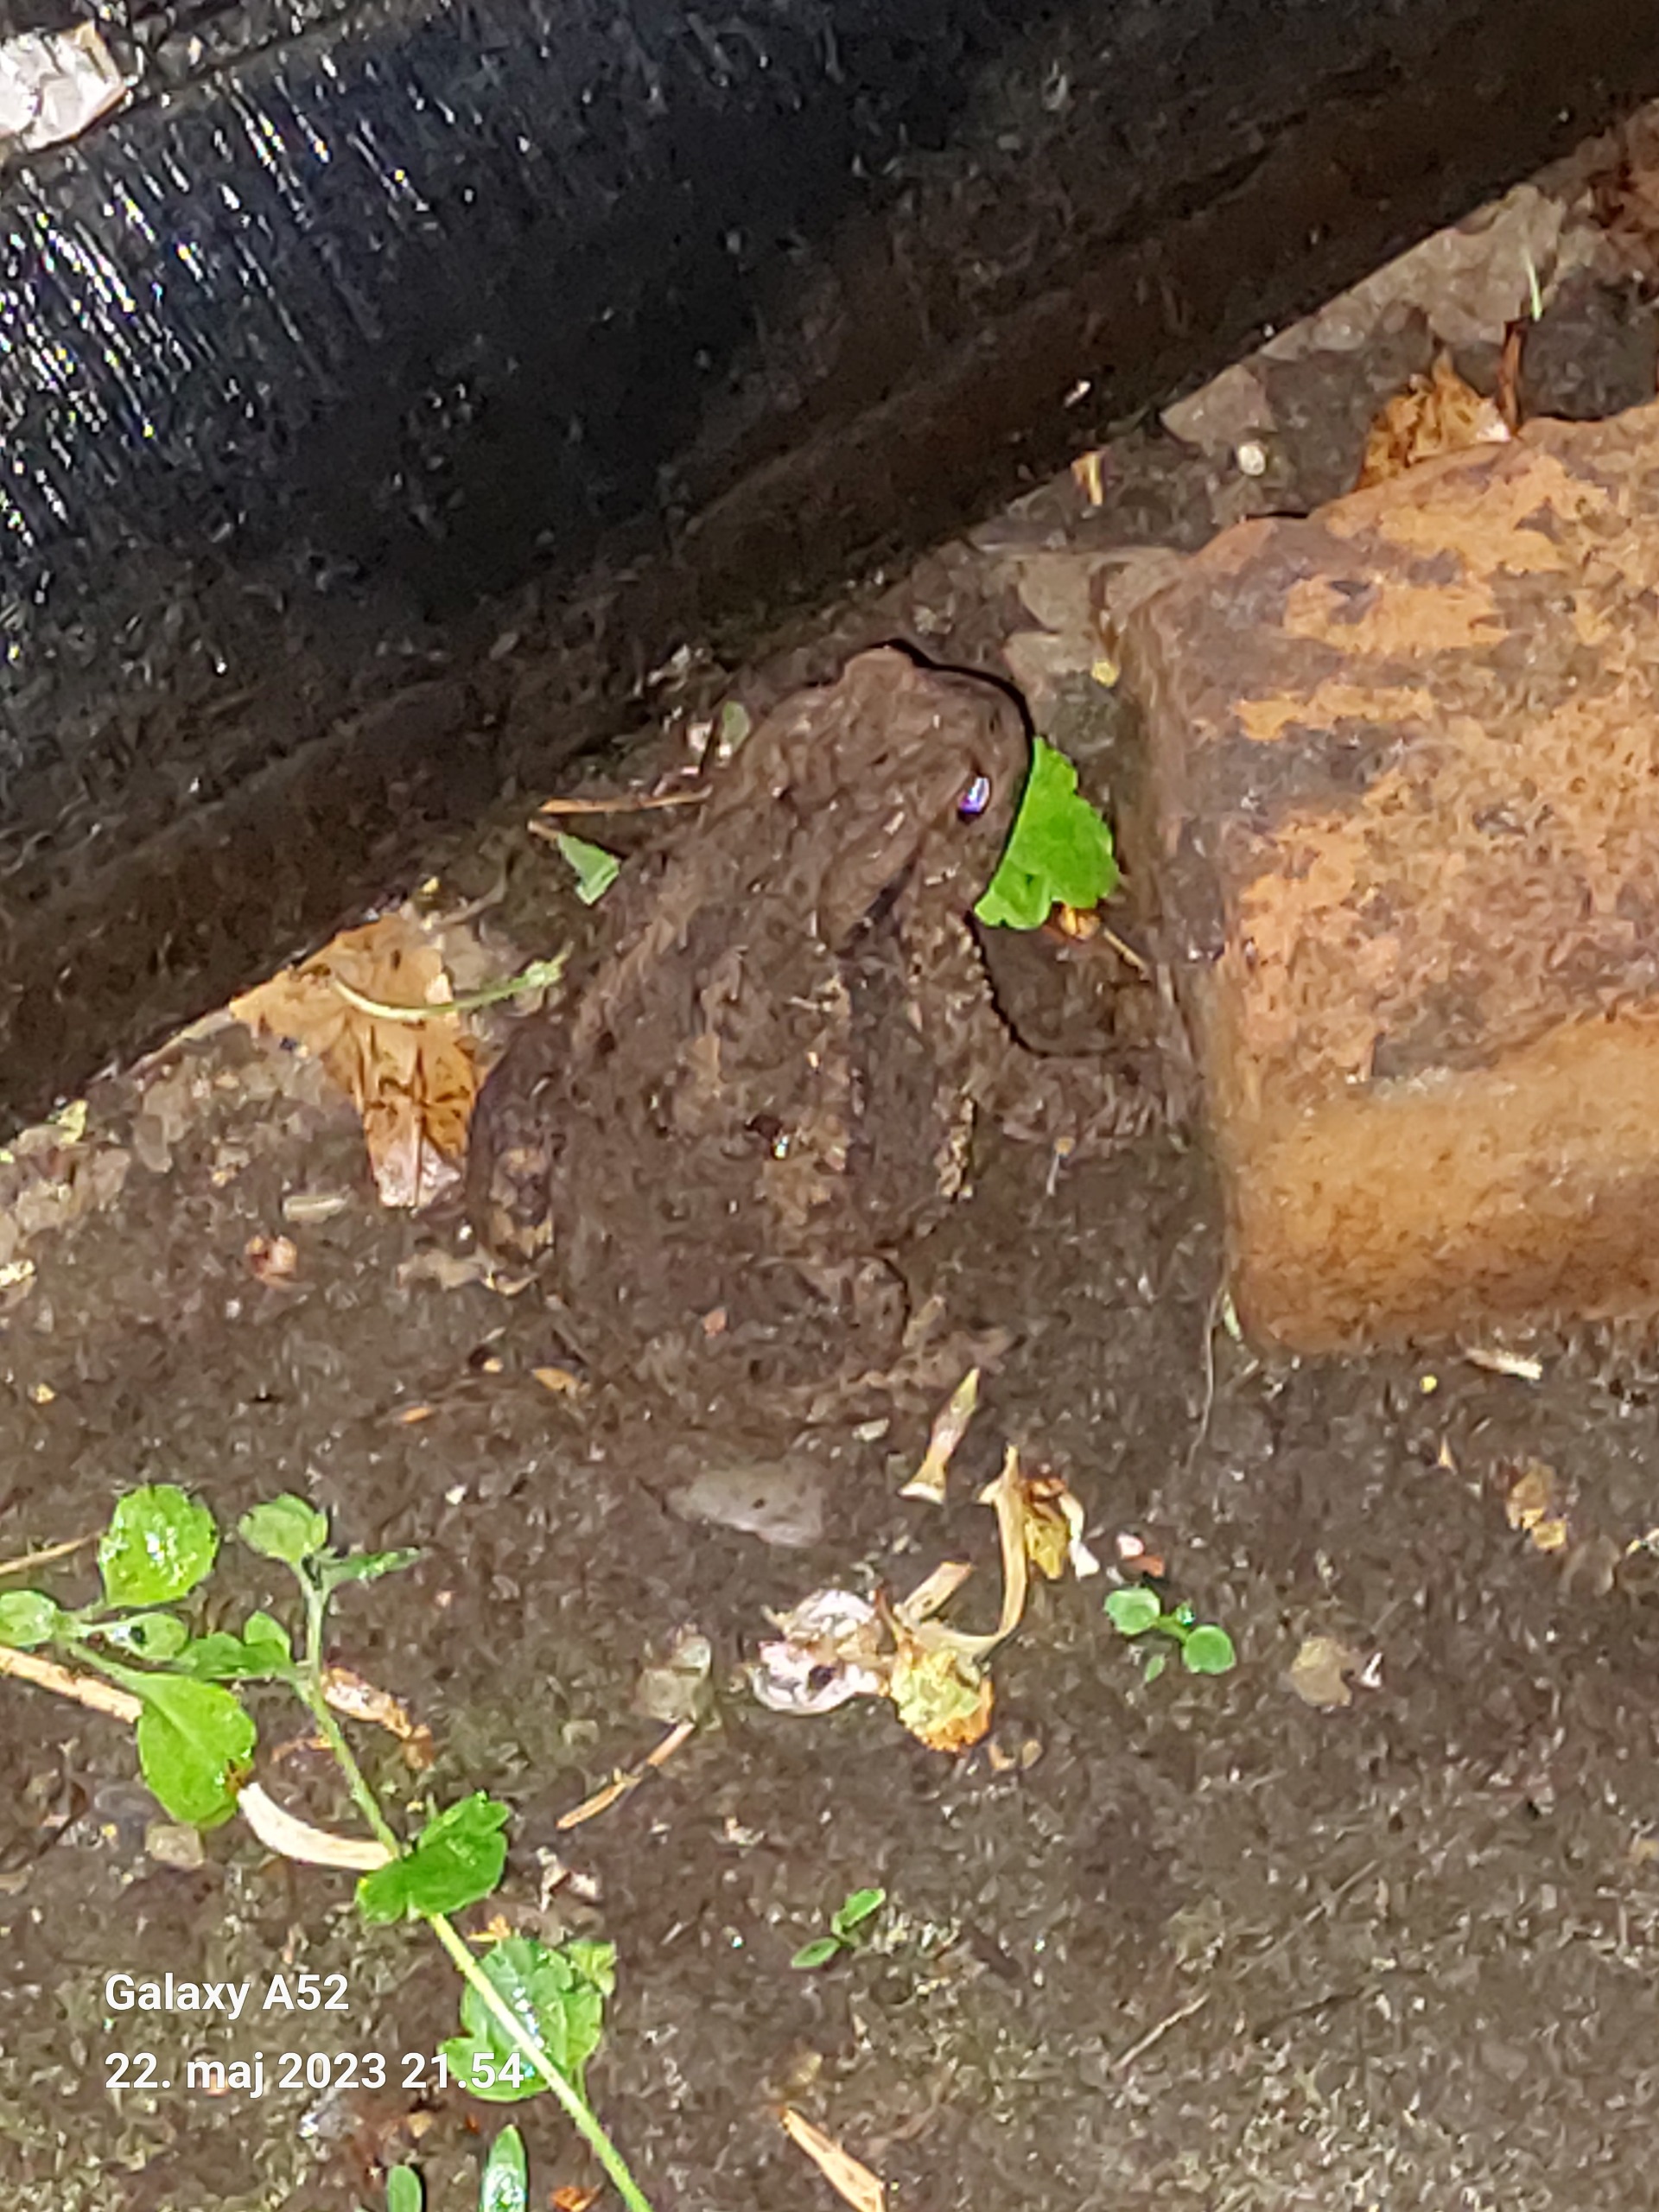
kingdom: Animalia
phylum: Chordata
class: Amphibia
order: Anura
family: Bufonidae
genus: Bufo
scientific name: Bufo bufo
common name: Skrubtudse
